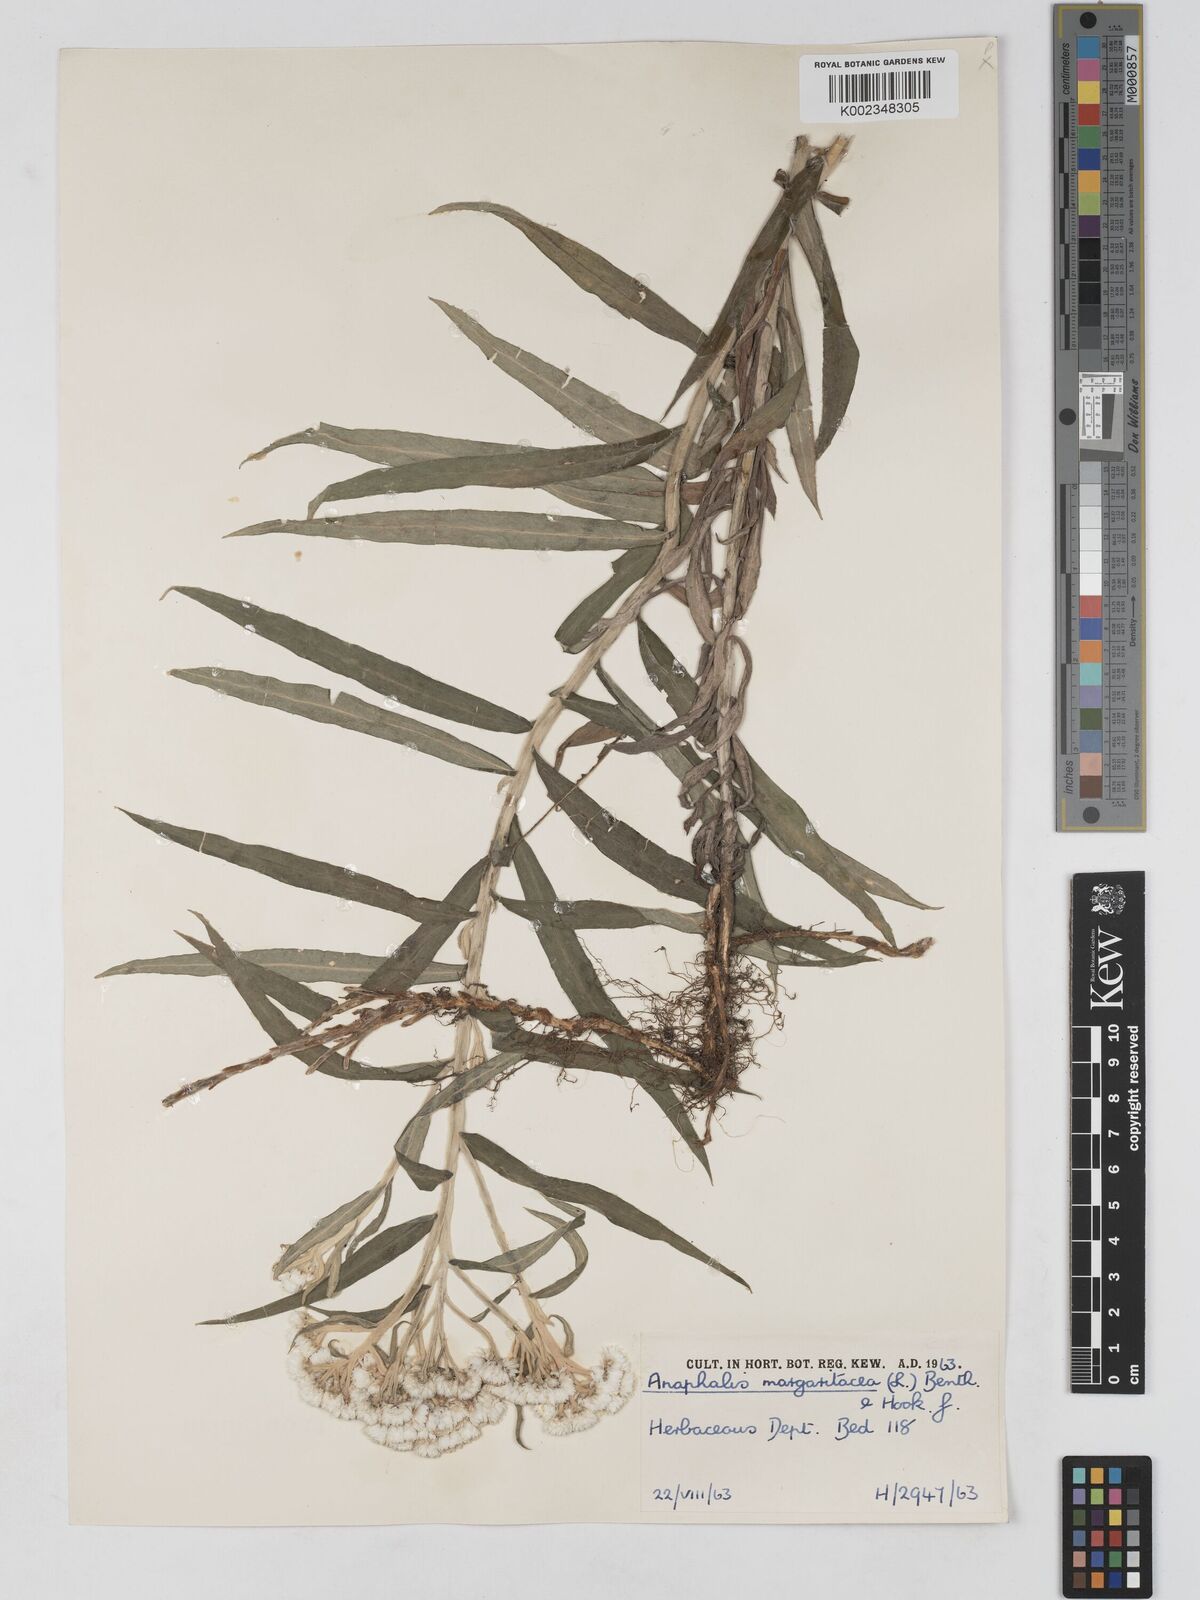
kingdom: Plantae
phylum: Tracheophyta
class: Magnoliopsida
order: Asterales
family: Asteraceae
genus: Anaphalis
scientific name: Anaphalis margaritacea
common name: Pearly everlasting
